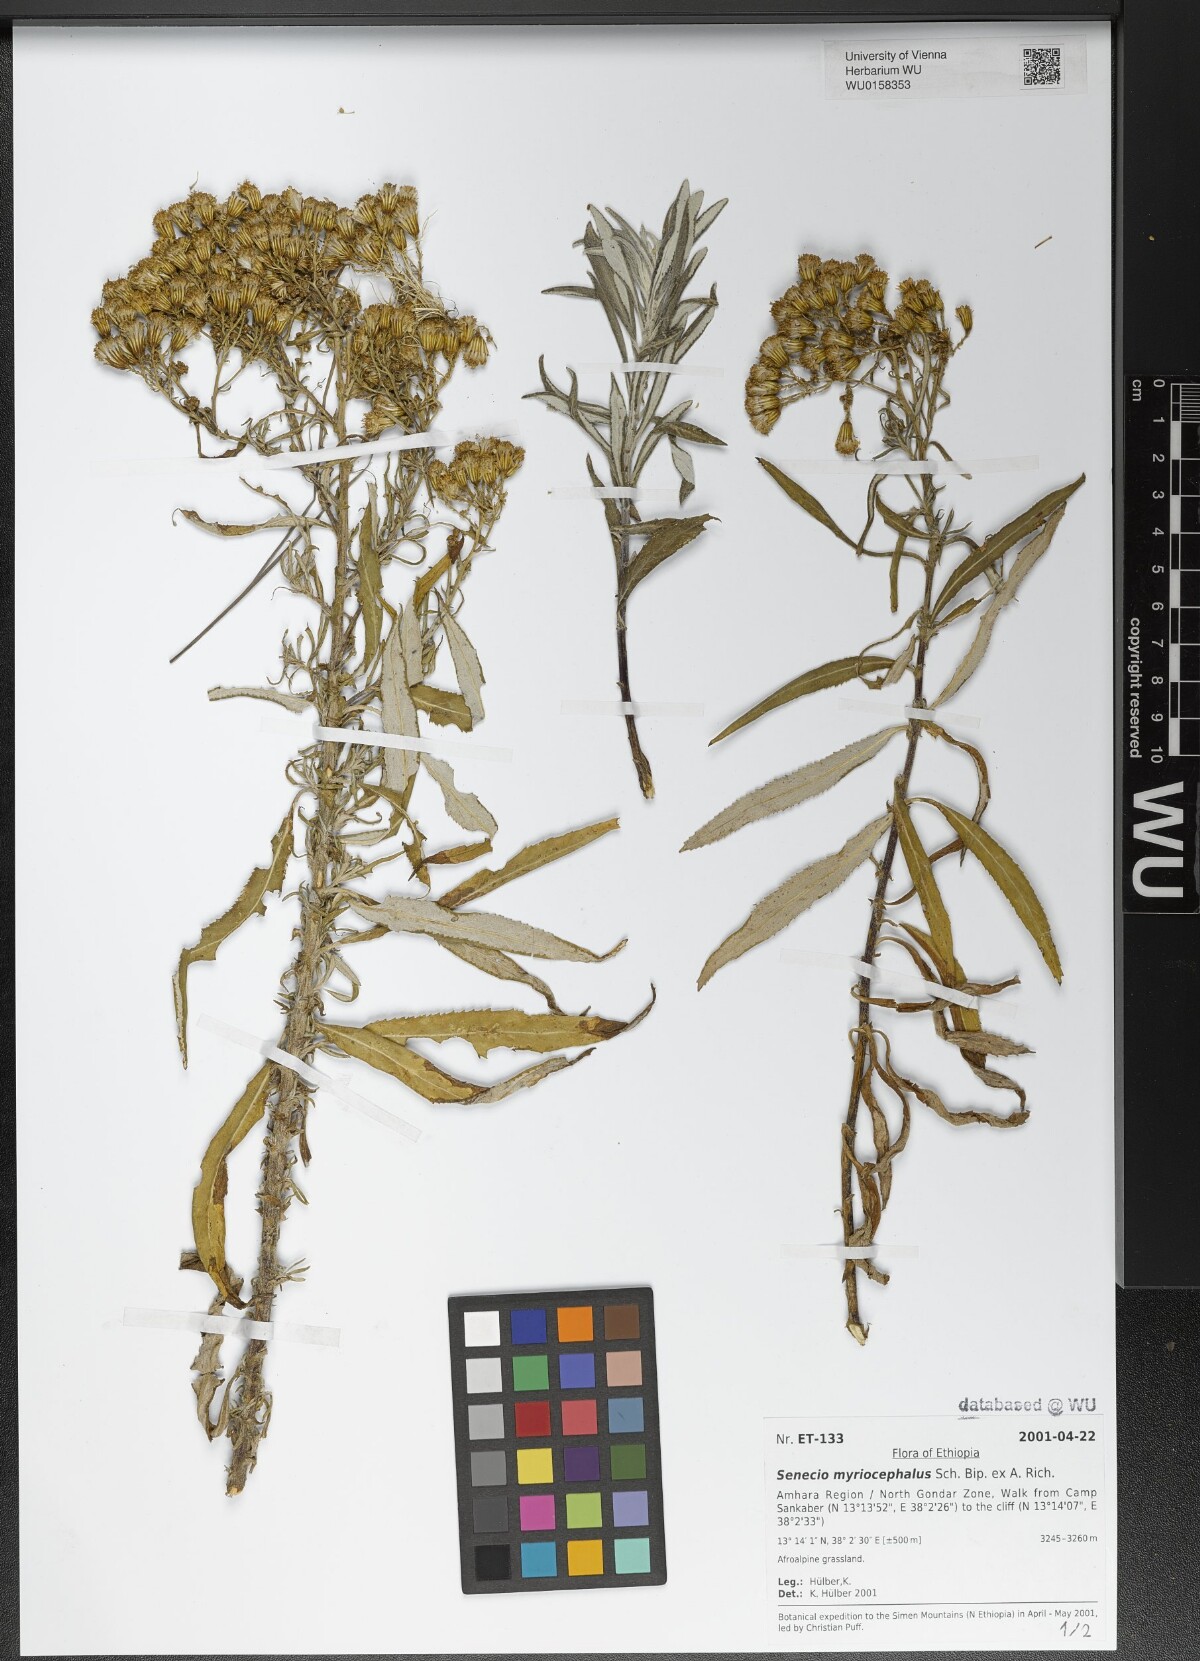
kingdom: Plantae
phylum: Tracheophyta
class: Magnoliopsida
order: Asterales
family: Asteraceae
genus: Senecio
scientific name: Senecio myriocephalus
